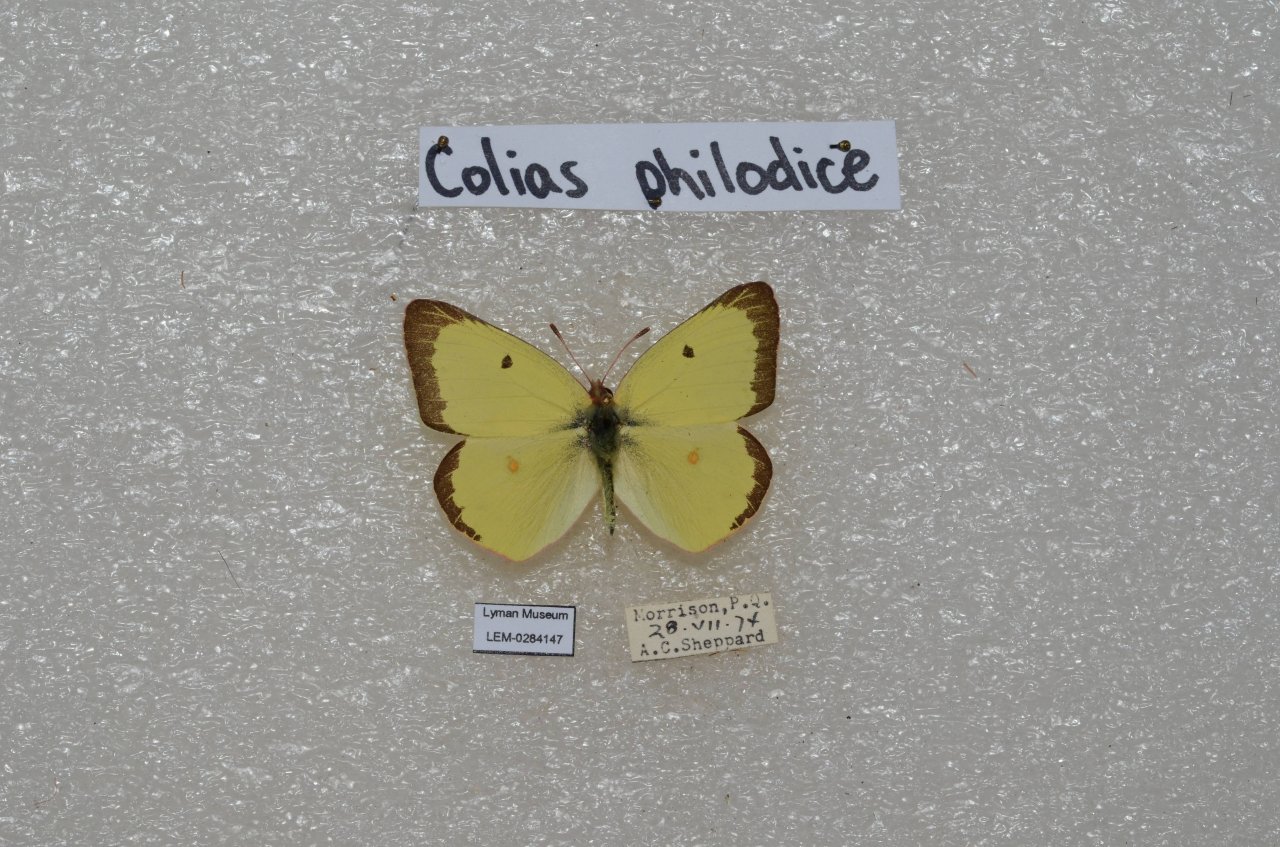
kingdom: Animalia
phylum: Arthropoda
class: Insecta
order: Lepidoptera
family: Pieridae
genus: Colias
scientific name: Colias philodice
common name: Clouded Sulphur
